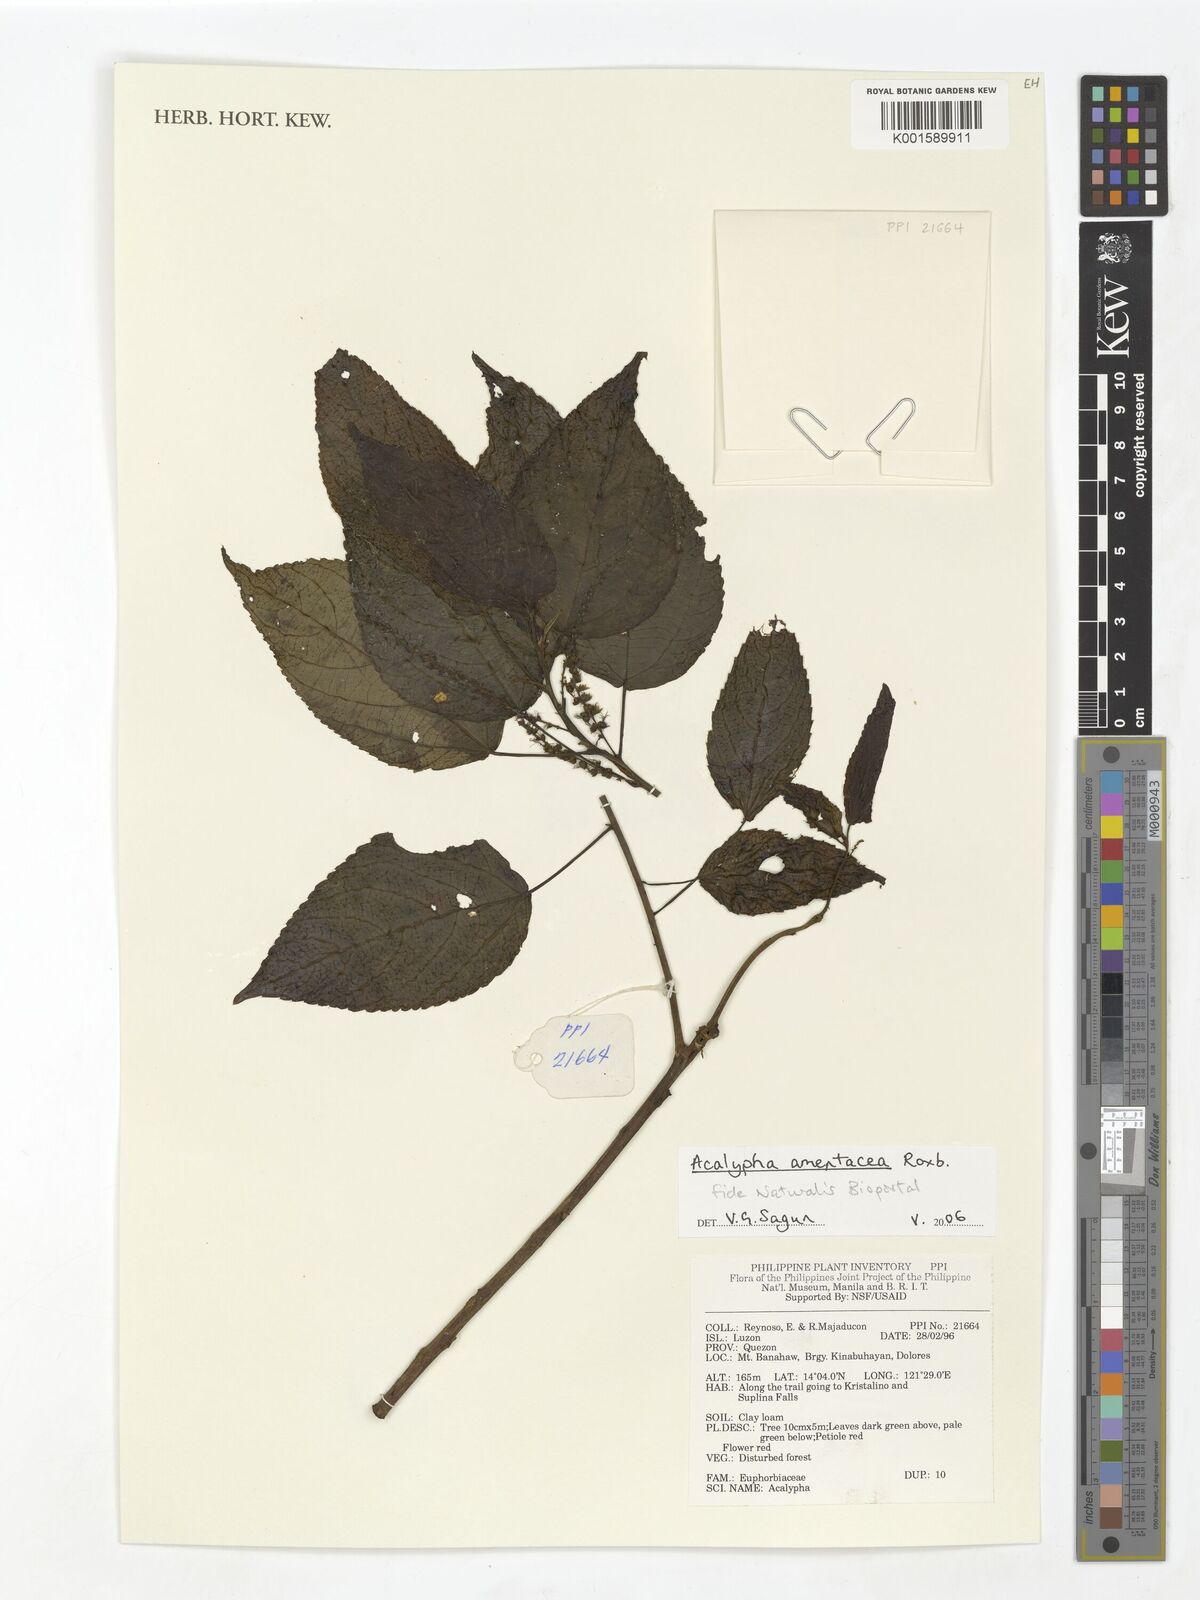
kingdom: Plantae
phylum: Tracheophyta
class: Magnoliopsida
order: Malpighiales
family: Euphorbiaceae
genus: Acalypha
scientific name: Acalypha amentacea
